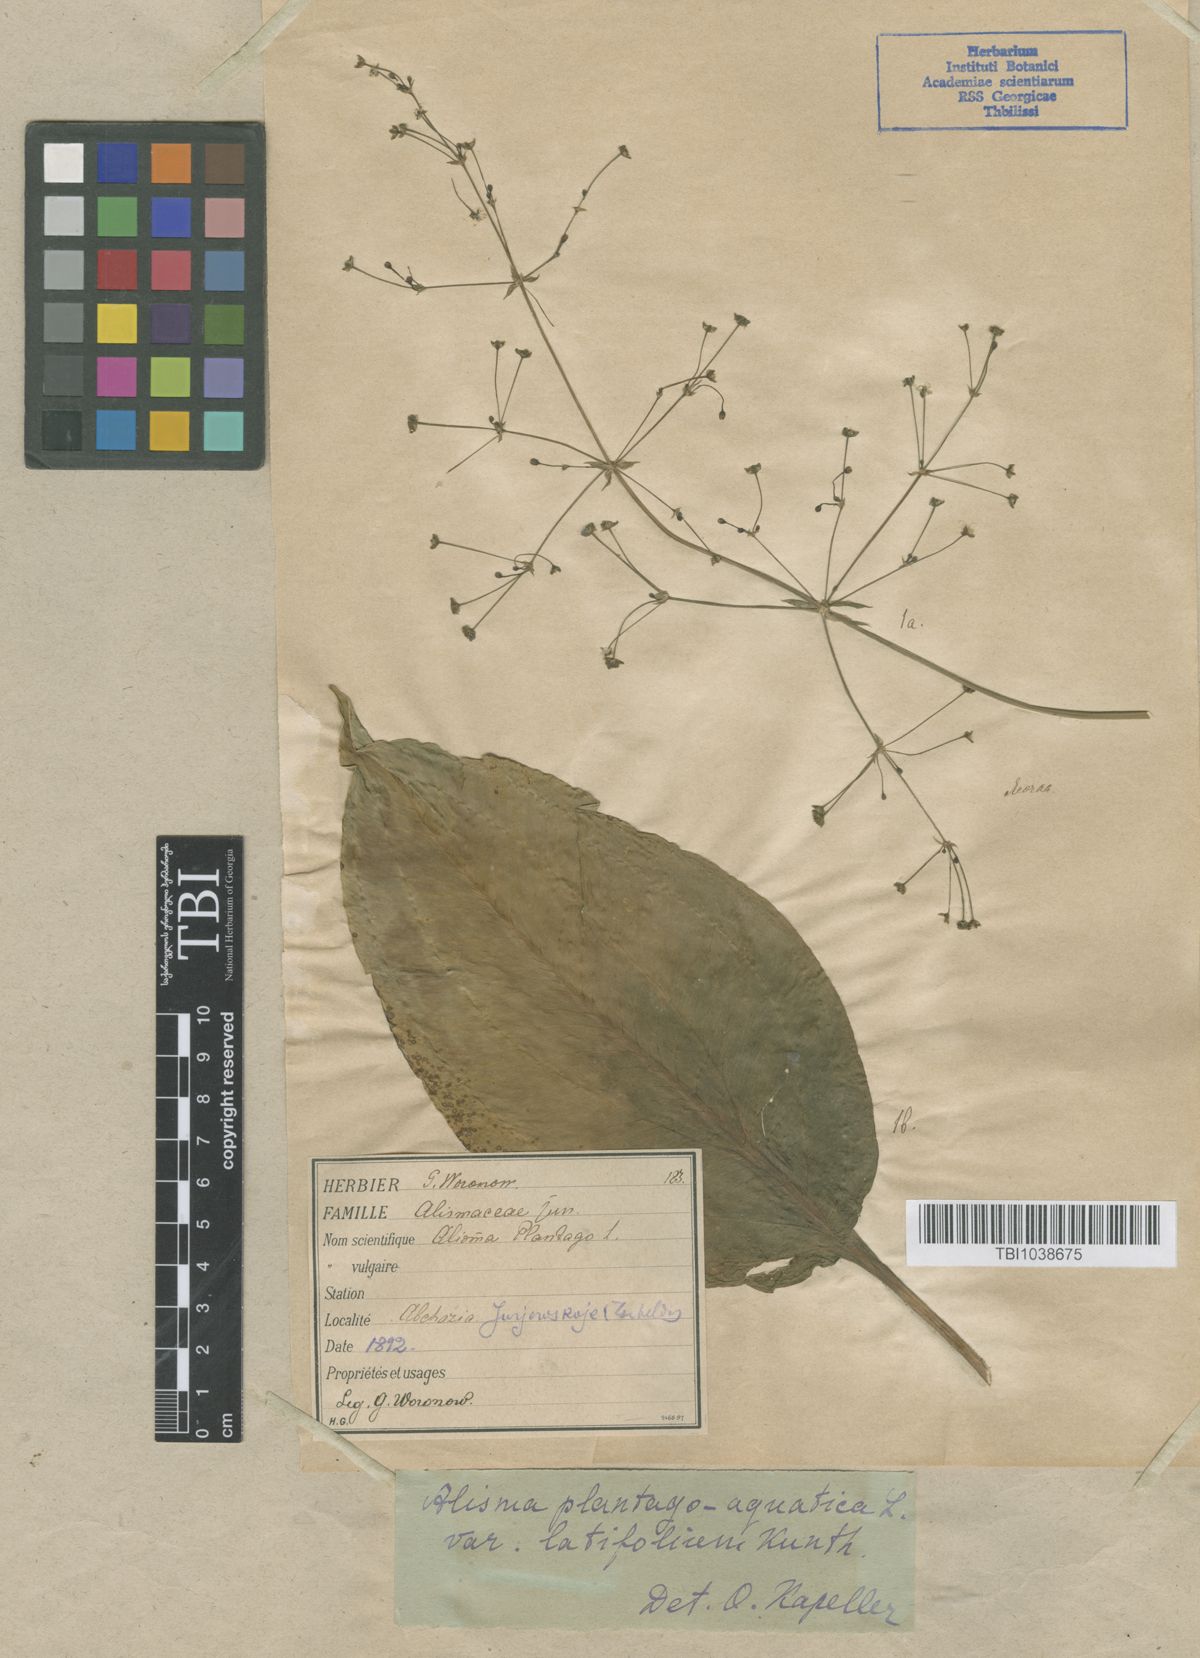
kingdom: Plantae
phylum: Tracheophyta
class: Liliopsida
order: Alismatales
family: Alismataceae
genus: Alisma
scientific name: Alisma plantago-aquatica
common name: Water-plantain
